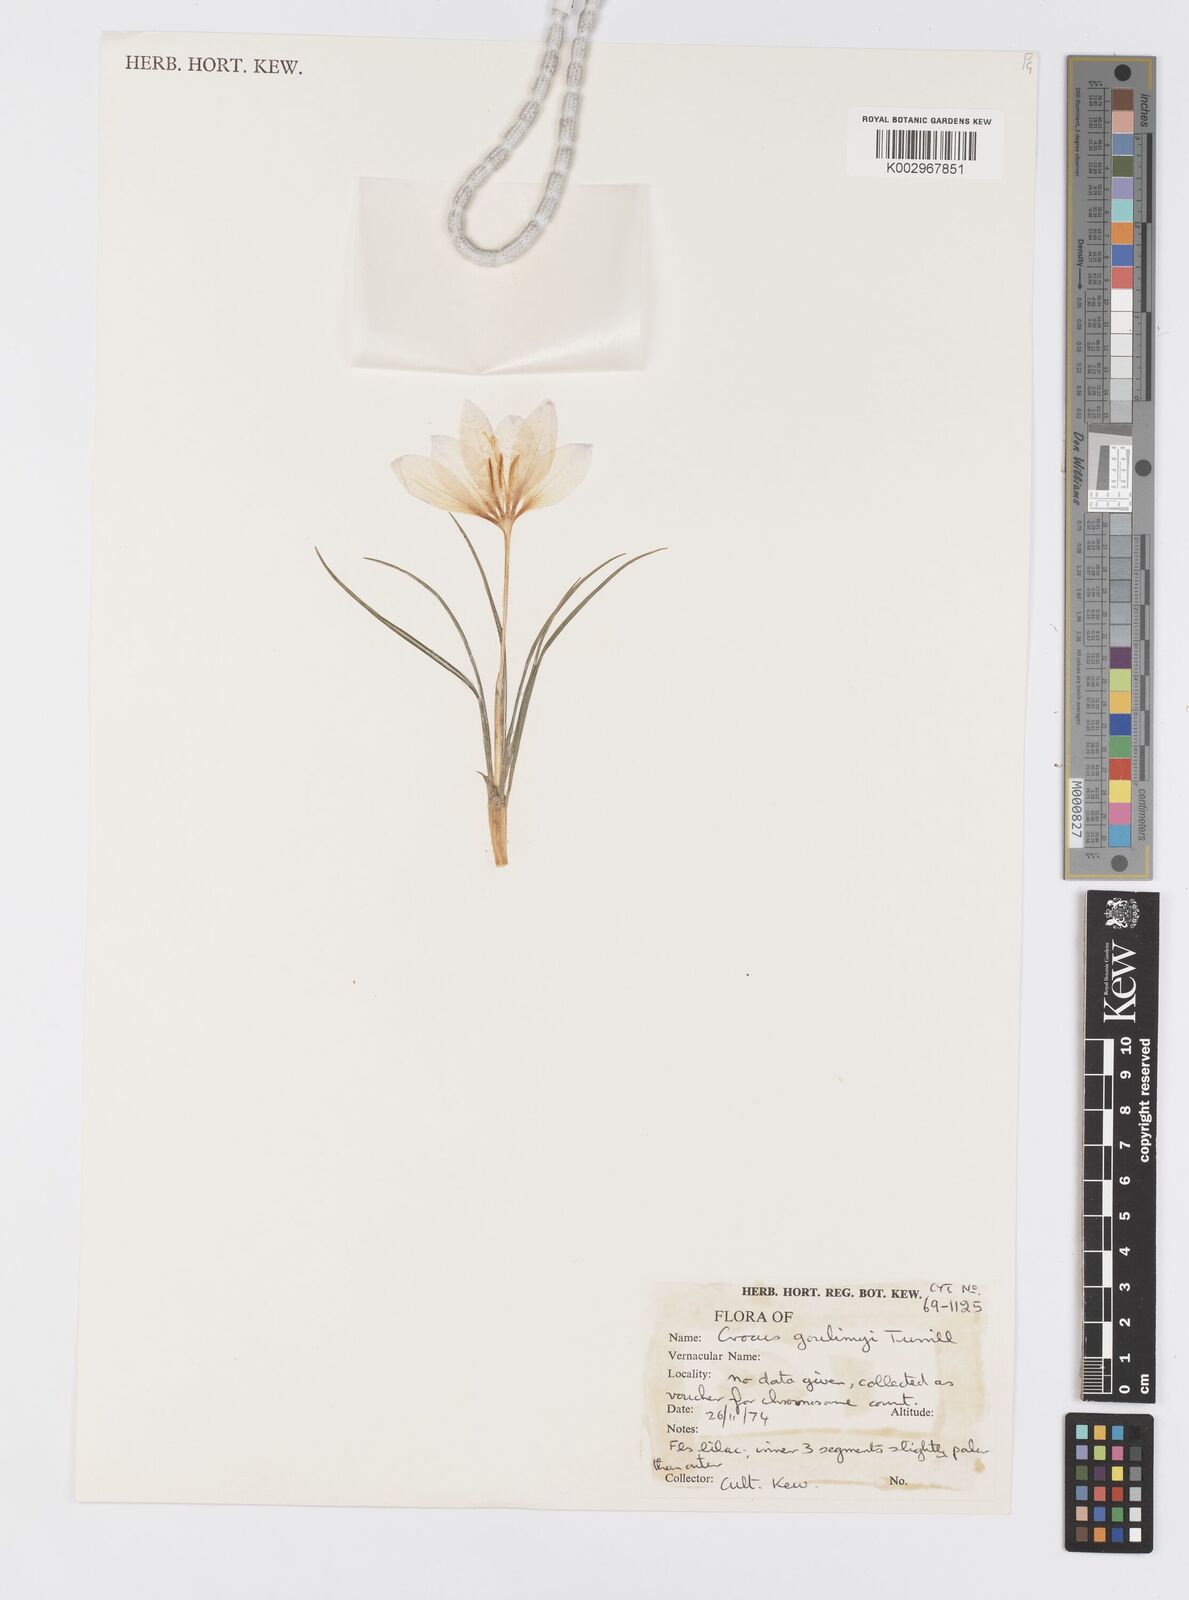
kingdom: Plantae
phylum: Tracheophyta
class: Liliopsida
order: Asparagales
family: Iridaceae
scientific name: Iridaceae
